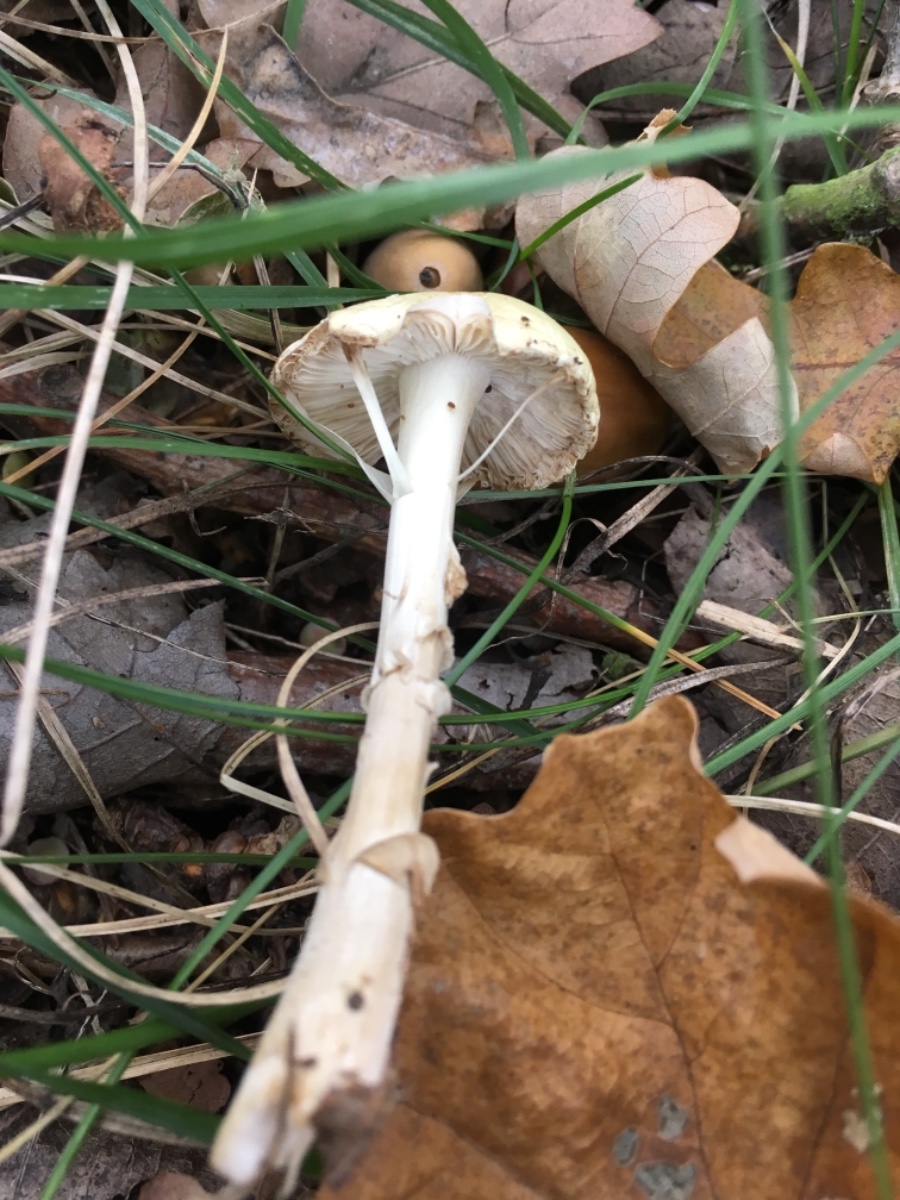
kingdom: Fungi
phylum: Basidiomycota
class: Agaricomycetes
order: Agaricales
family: Amanitaceae
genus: Amanita
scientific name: Amanita citrina
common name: kugleknoldet fluesvamp
